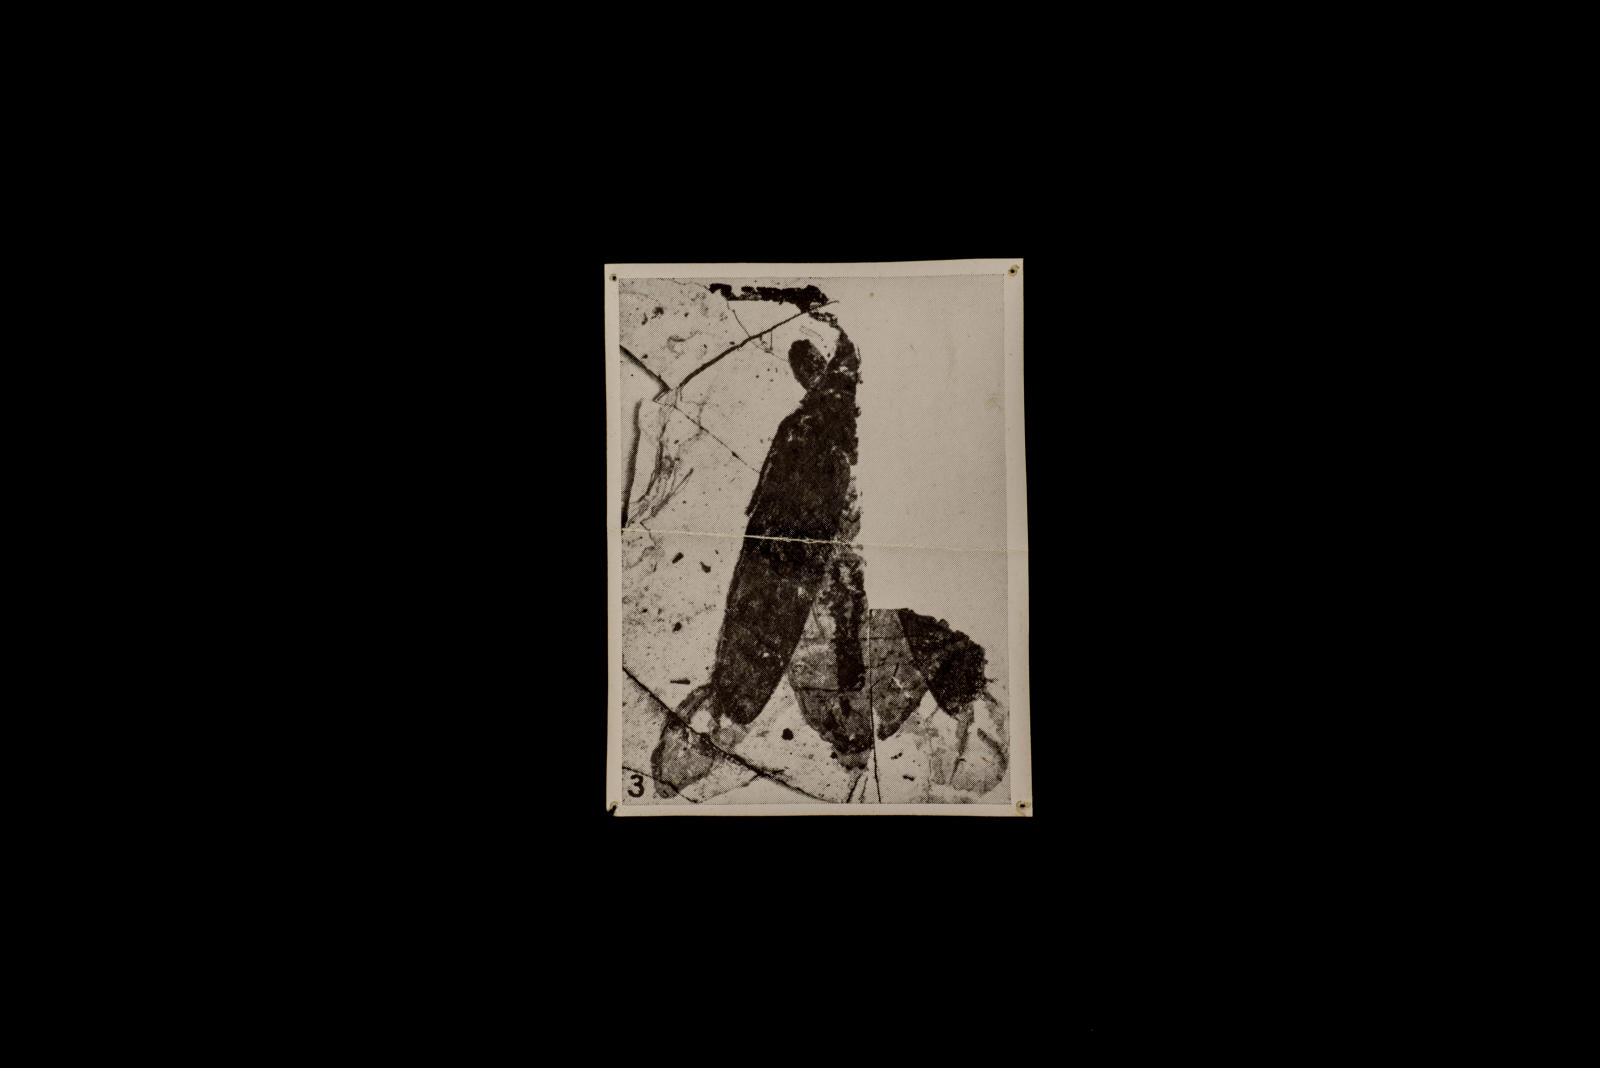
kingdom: Animalia
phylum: Arthropoda
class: Insecta
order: Coleoptera
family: Cerambycidae
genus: Macroleptura
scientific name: Macroleptura Saperda petrorum
